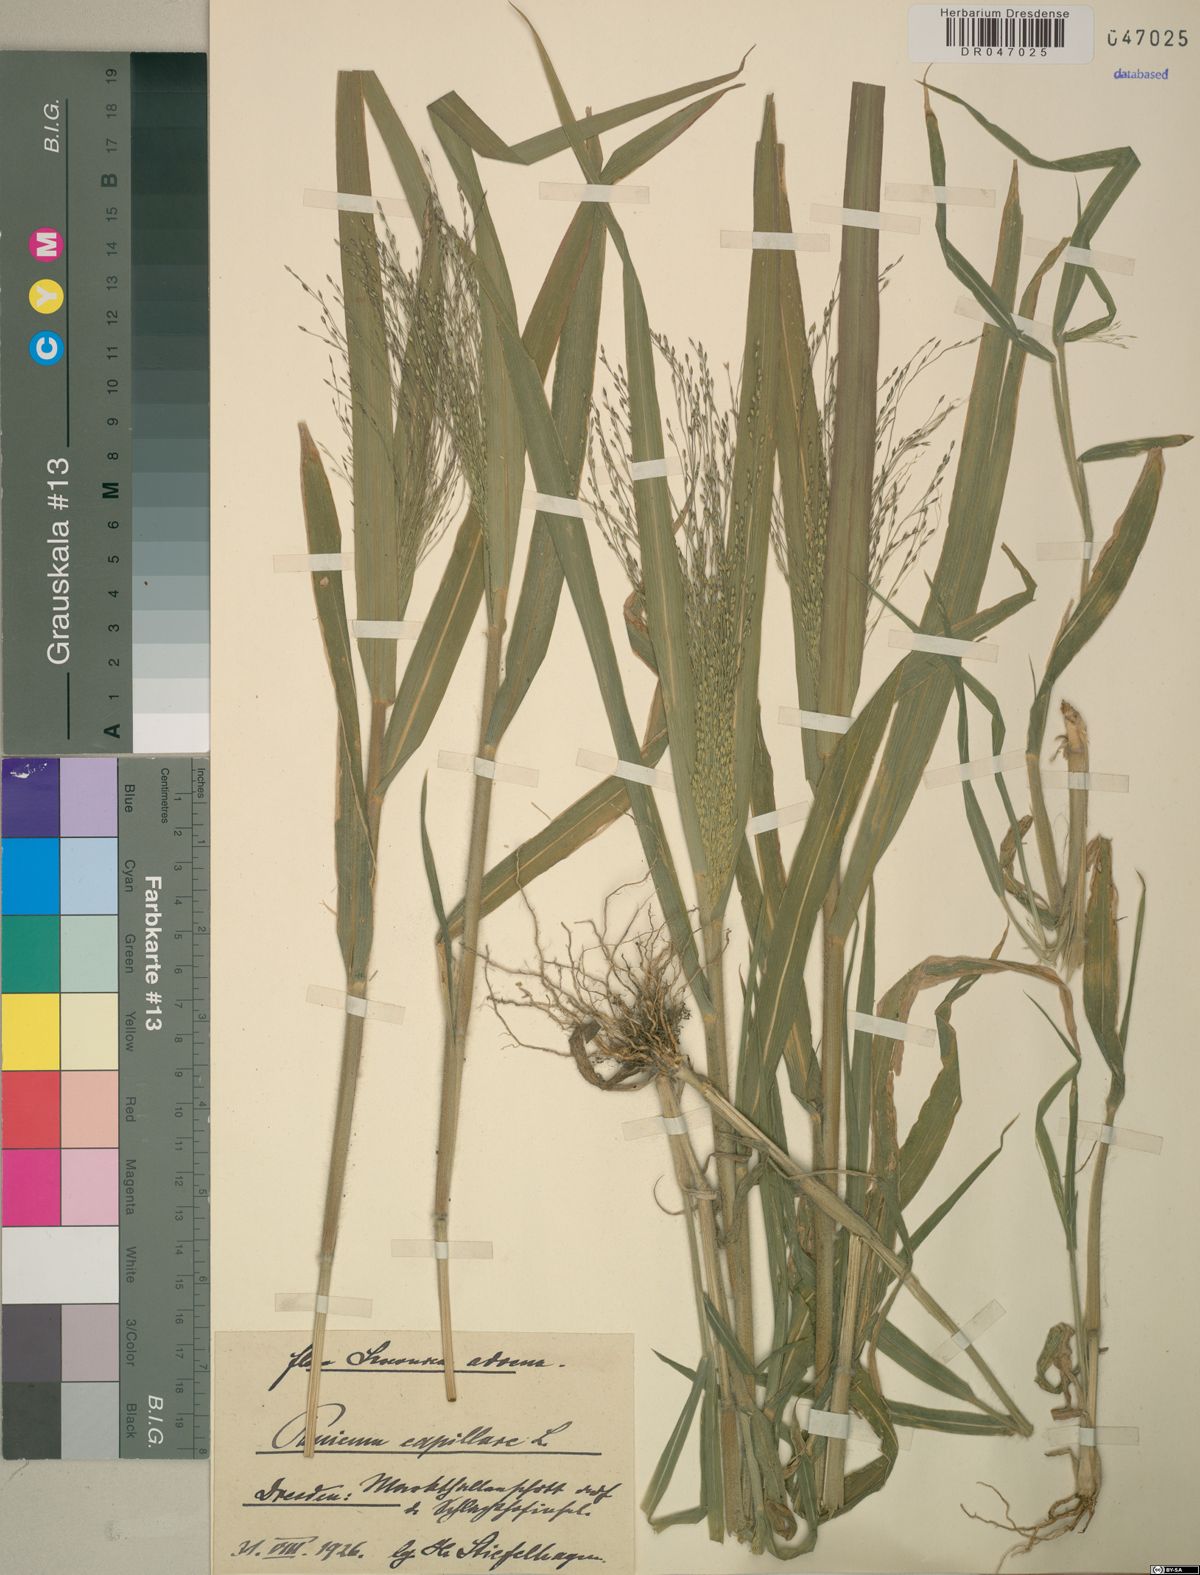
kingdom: Plantae
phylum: Tracheophyta
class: Liliopsida
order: Poales
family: Poaceae
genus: Panicum
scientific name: Panicum capillare
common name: Witch-grass
